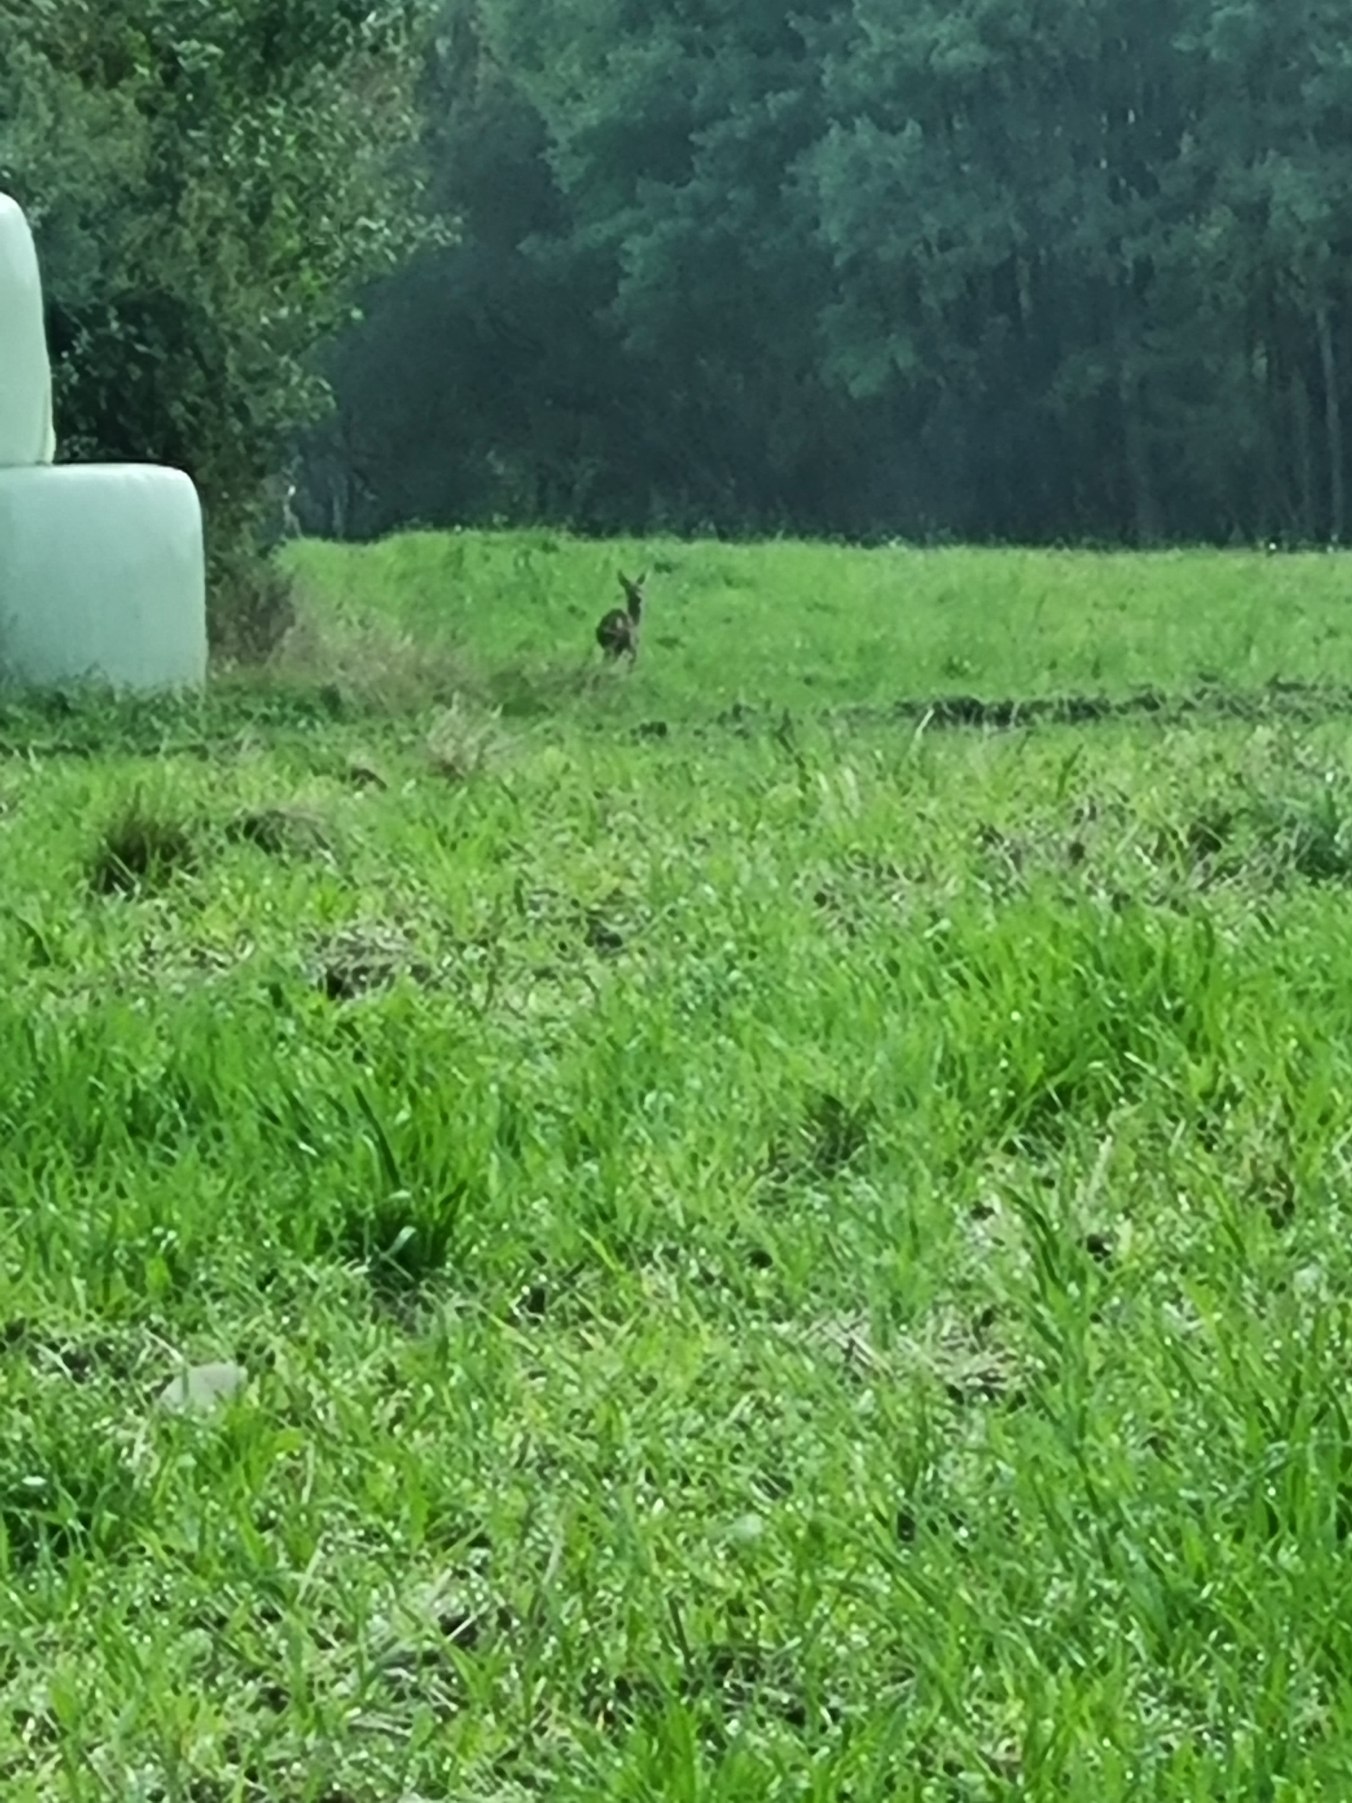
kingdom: Animalia
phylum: Chordata
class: Mammalia
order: Artiodactyla
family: Cervidae
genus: Capreolus
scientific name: Capreolus capreolus
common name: Rådyr
